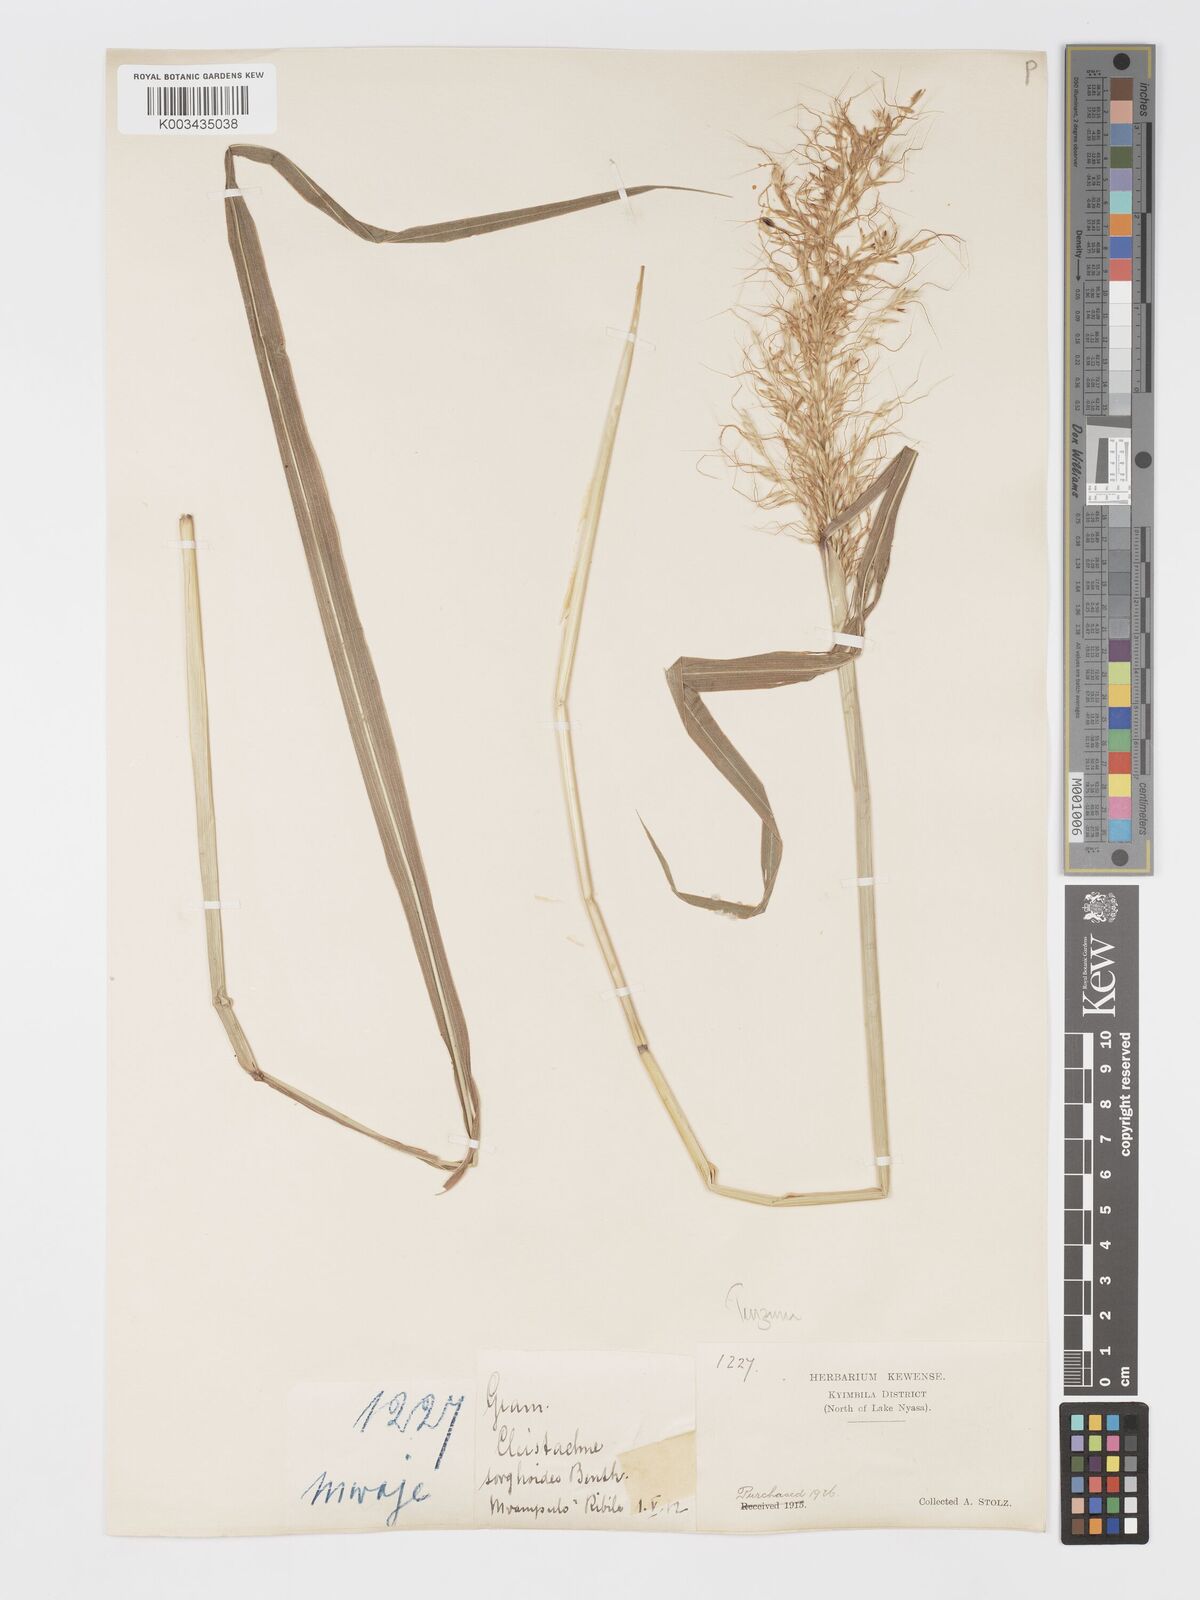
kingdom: Plantae
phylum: Tracheophyta
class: Liliopsida
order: Poales
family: Poaceae
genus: Cleistachne
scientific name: Cleistachne sorghoides
